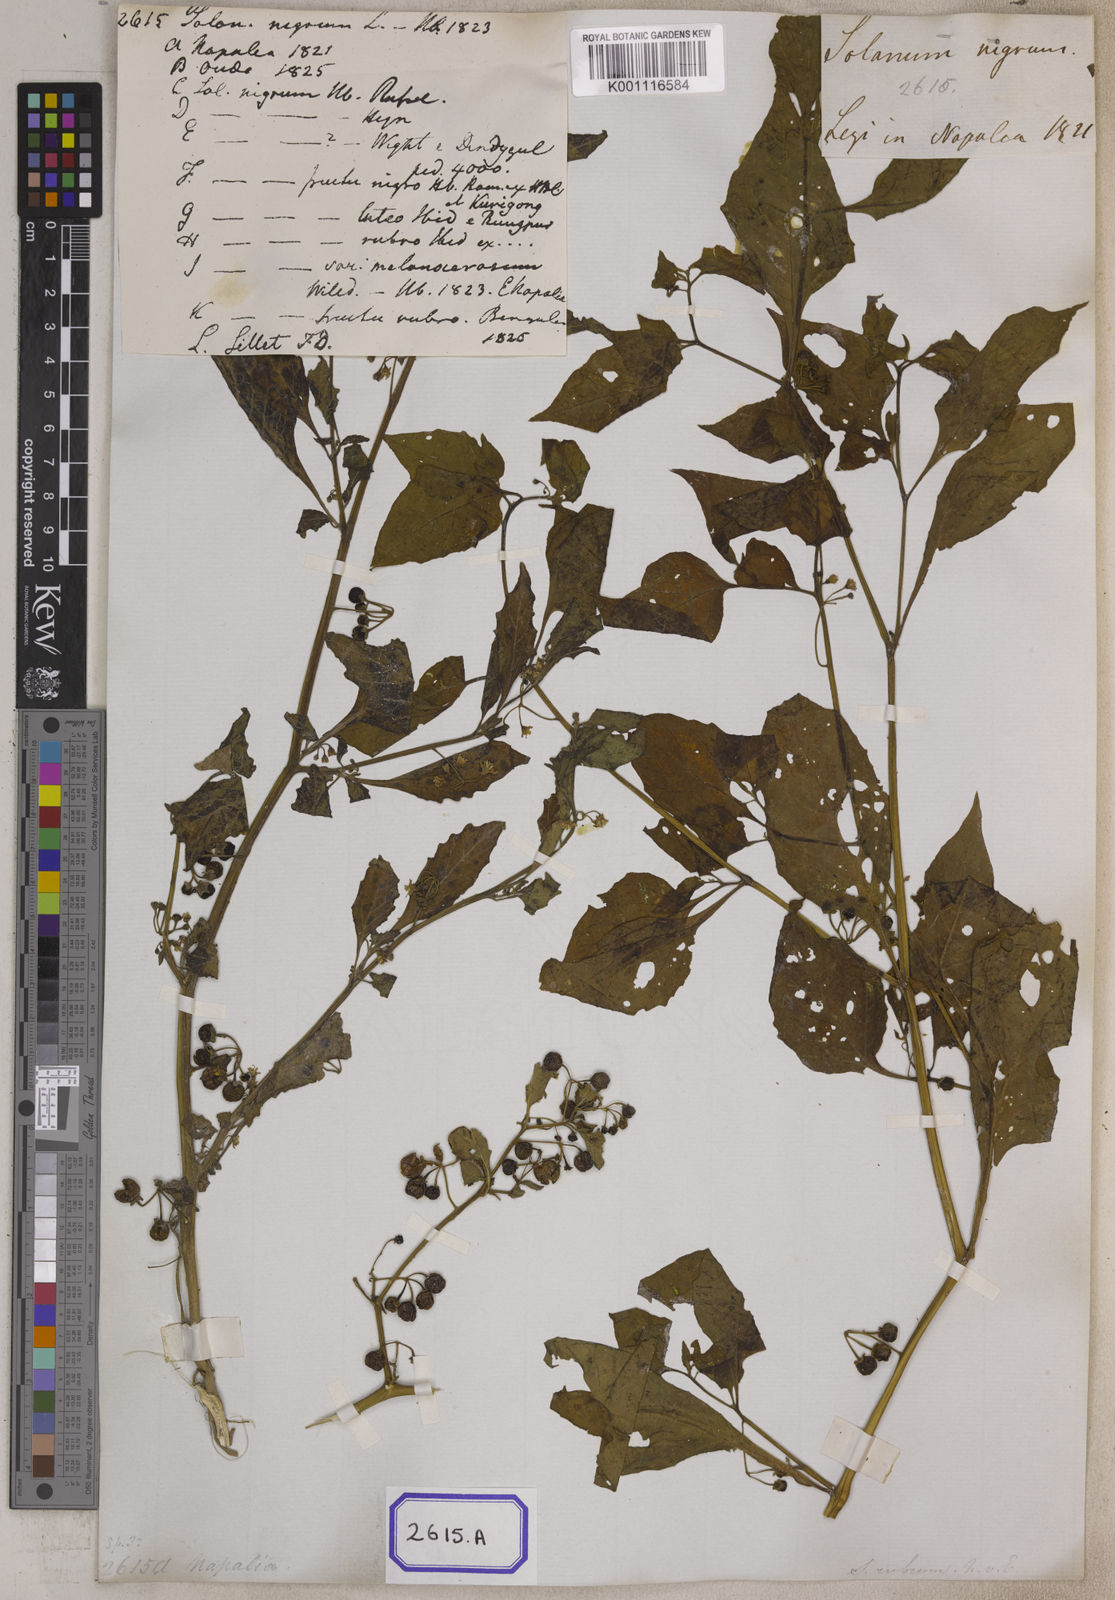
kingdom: Plantae
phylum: Tracheophyta
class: Magnoliopsida
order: Solanales
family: Solanaceae
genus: Solanum
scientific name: Solanum nigrum
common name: Black nightshade
